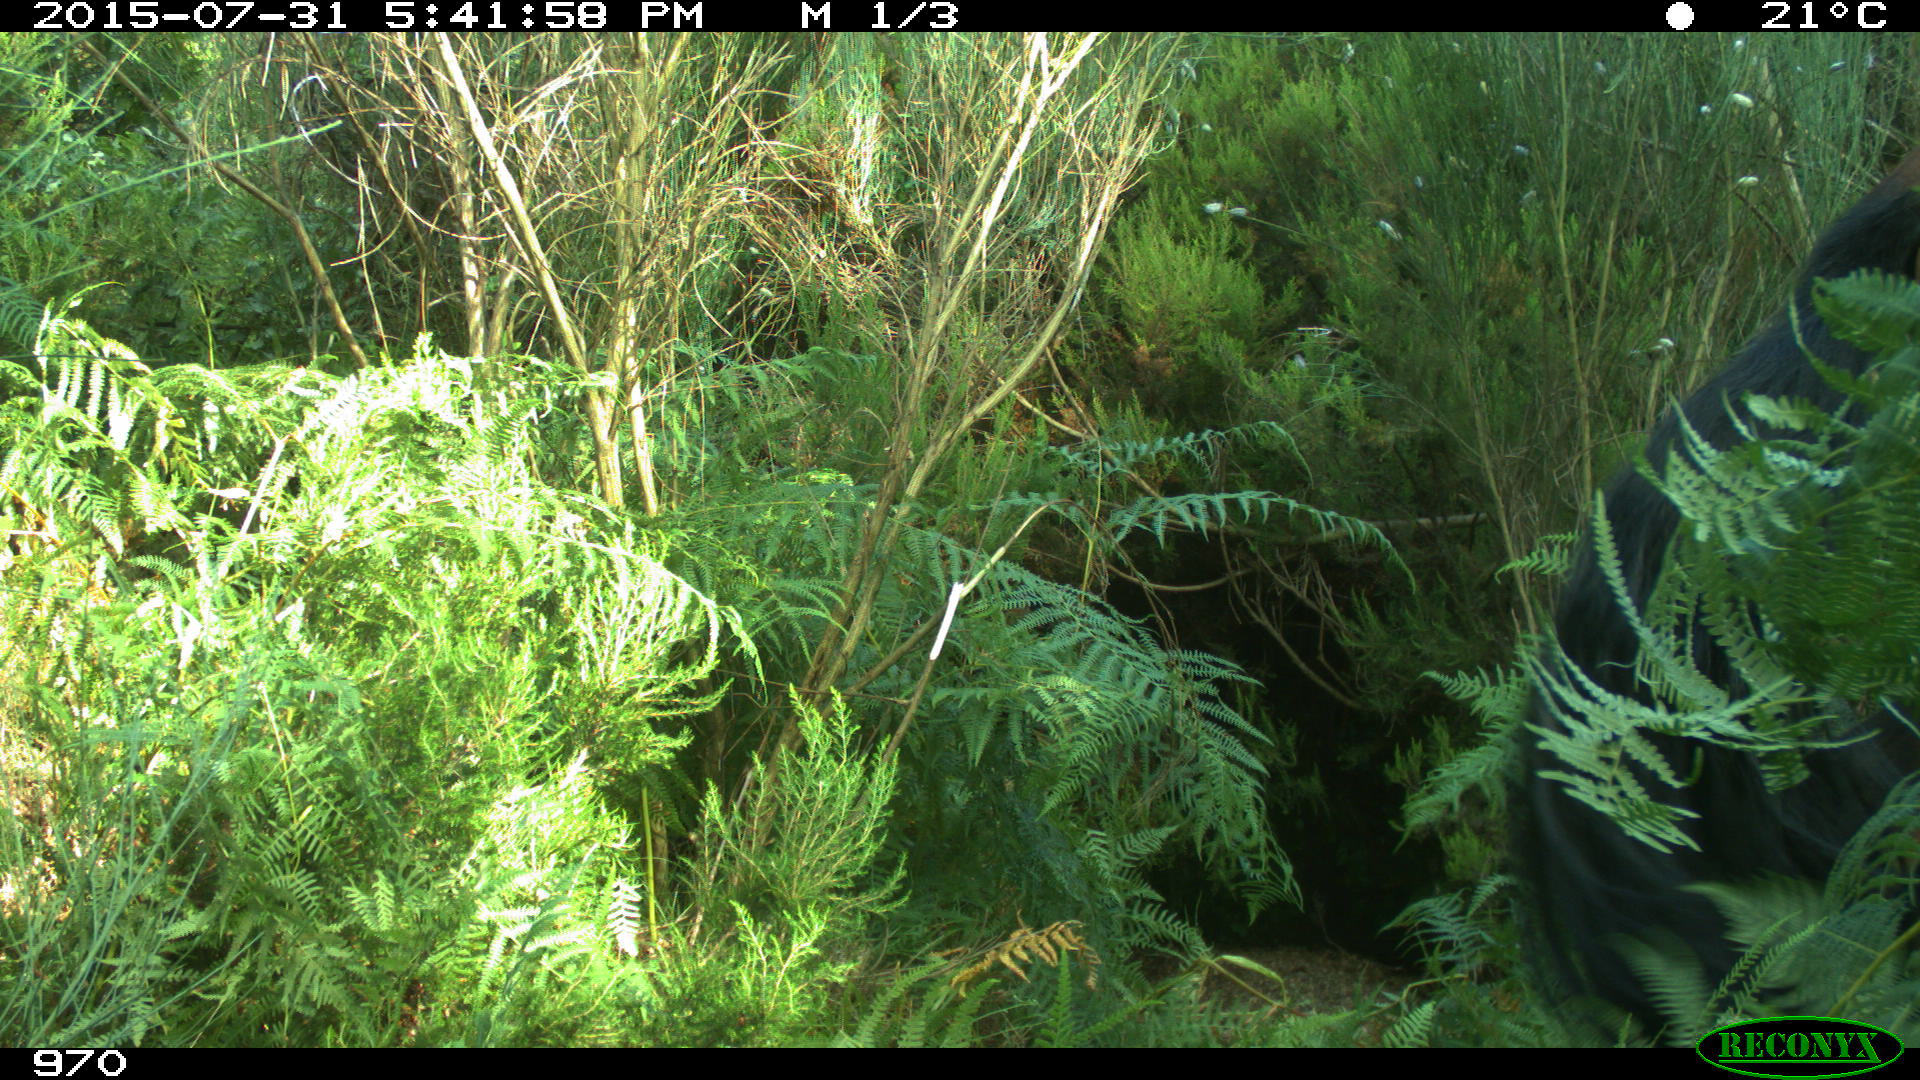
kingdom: Animalia
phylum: Chordata
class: Mammalia
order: Artiodactyla
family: Suidae
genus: Sus
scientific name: Sus scrofa
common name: Wild boar
